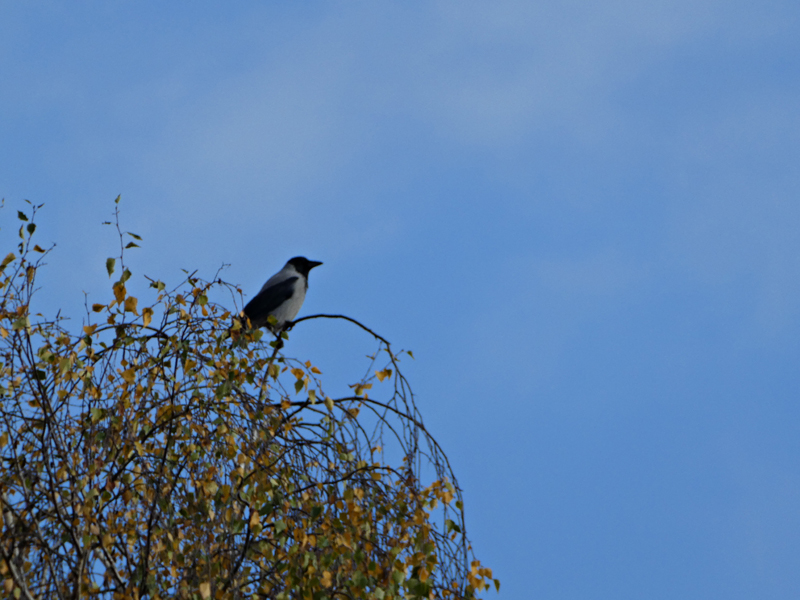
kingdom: Animalia
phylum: Chordata
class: Aves
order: Passeriformes
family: Corvidae
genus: Corvus
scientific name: Corvus cornix
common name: Hooded crow
